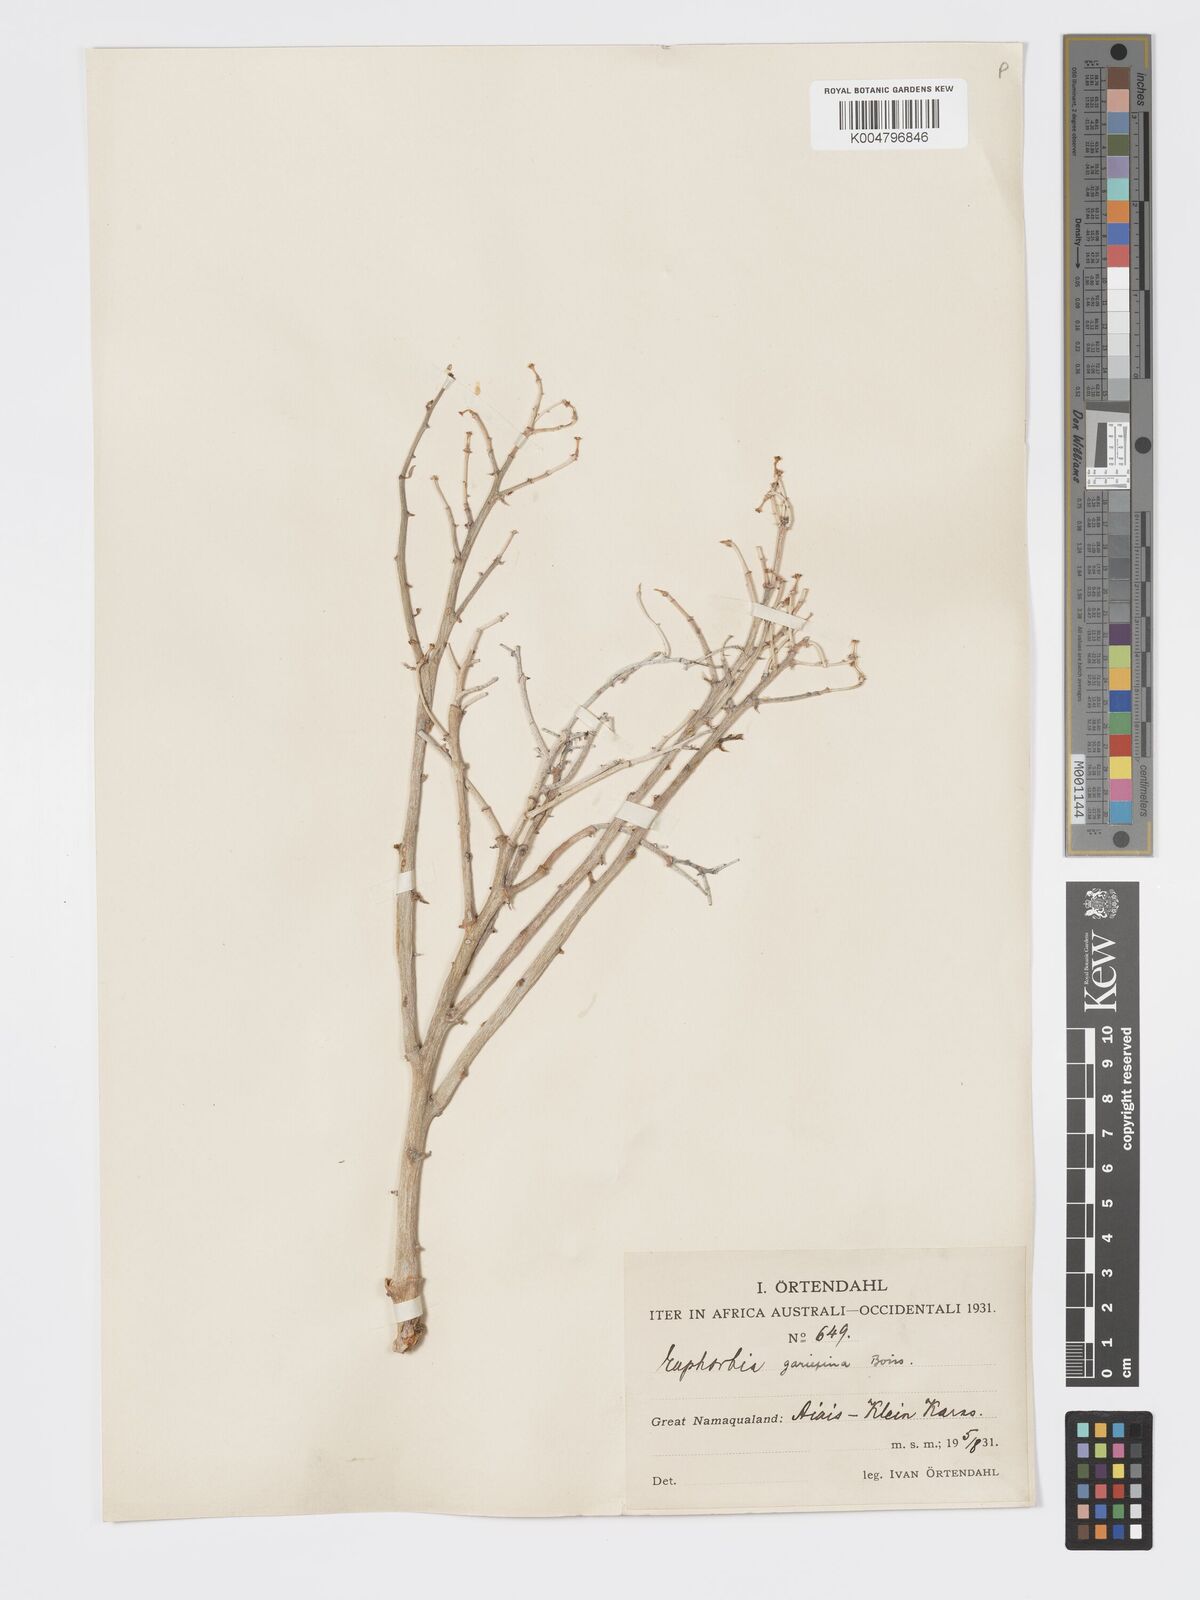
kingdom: Plantae
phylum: Tracheophyta
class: Magnoliopsida
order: Malpighiales
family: Euphorbiaceae
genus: Euphorbia
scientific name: Euphorbia gariepina
